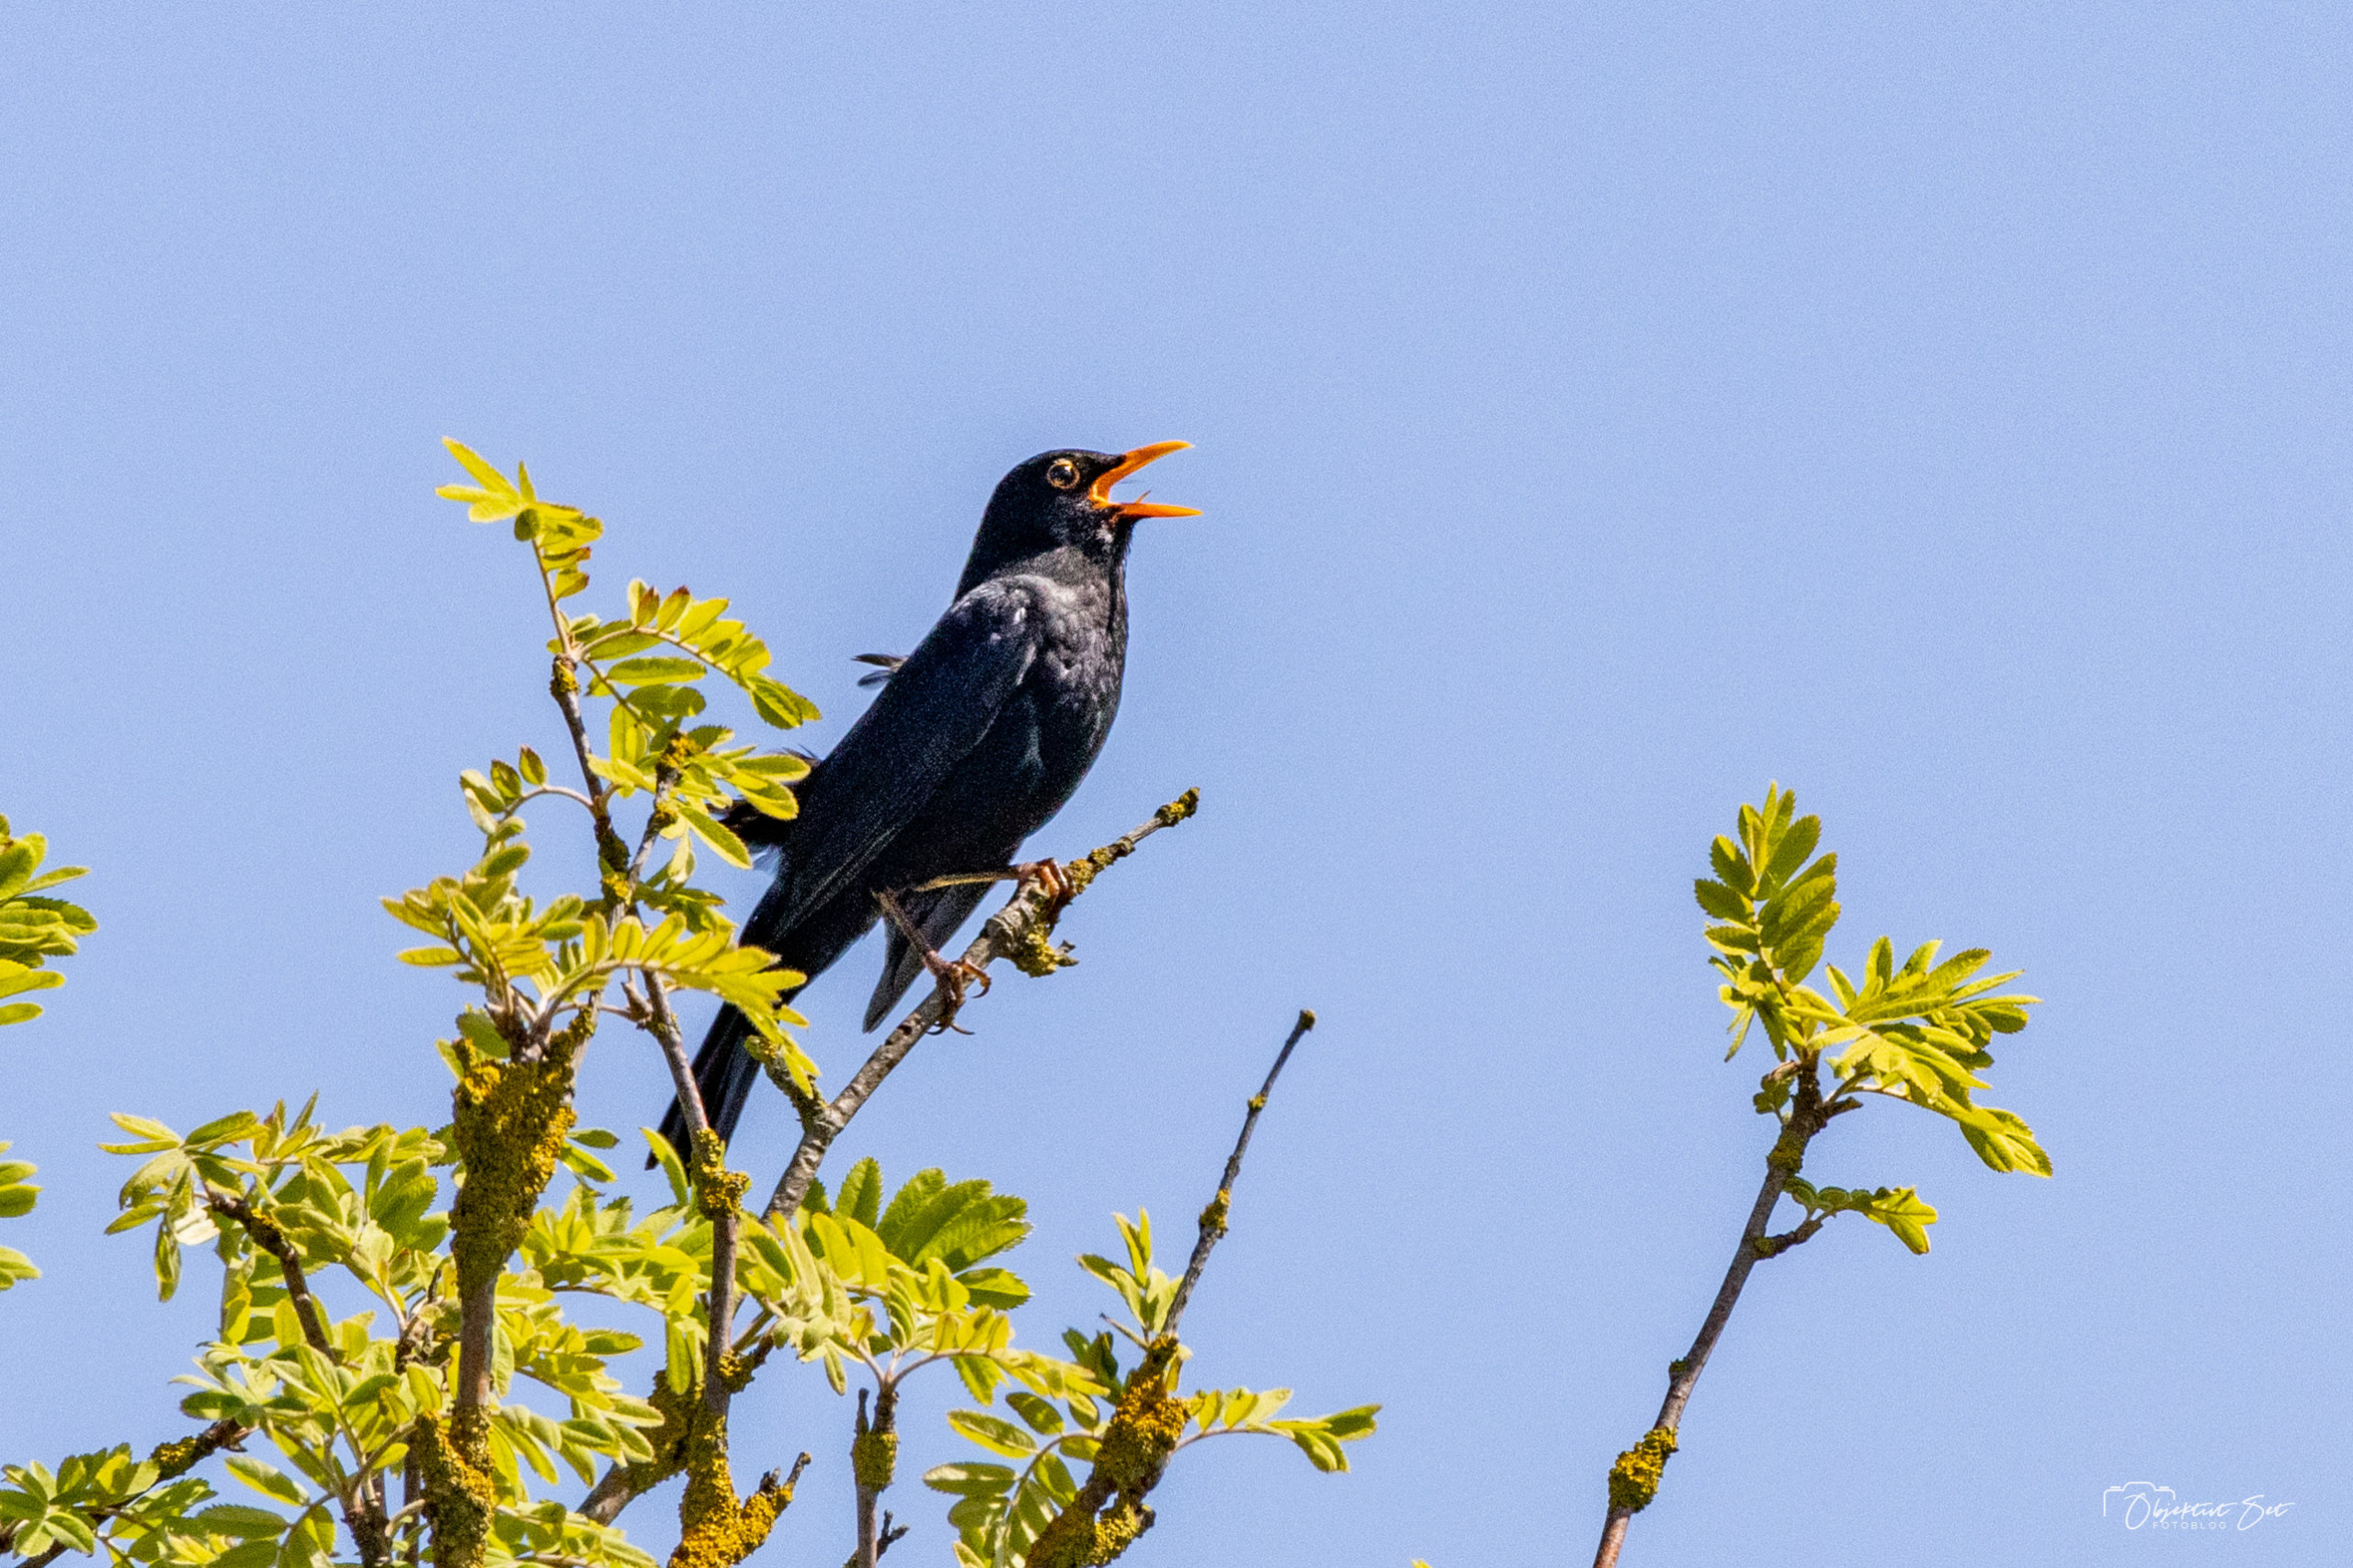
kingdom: Animalia
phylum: Chordata
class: Aves
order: Passeriformes
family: Turdidae
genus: Turdus
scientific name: Turdus merula
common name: Solsort
